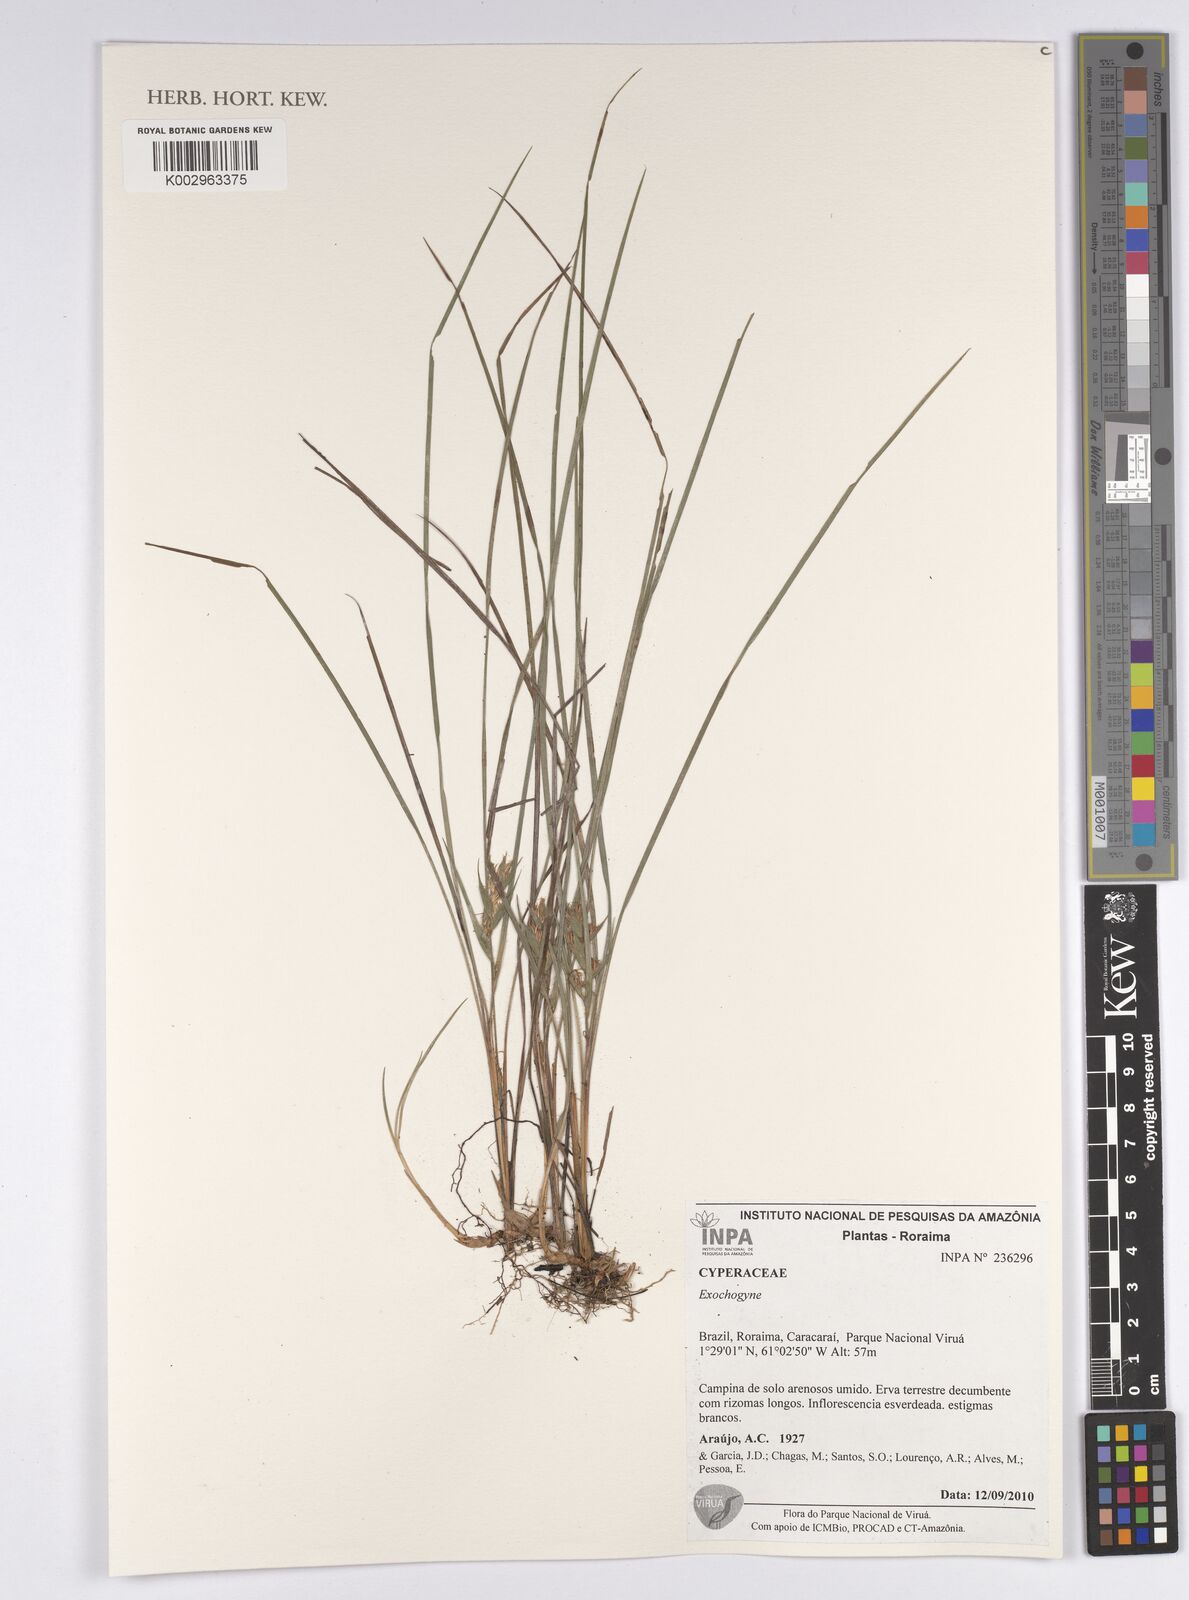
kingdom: Plantae
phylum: Tracheophyta
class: Liliopsida
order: Poales
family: Cyperaceae
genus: Exochogyne
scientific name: Exochogyne
